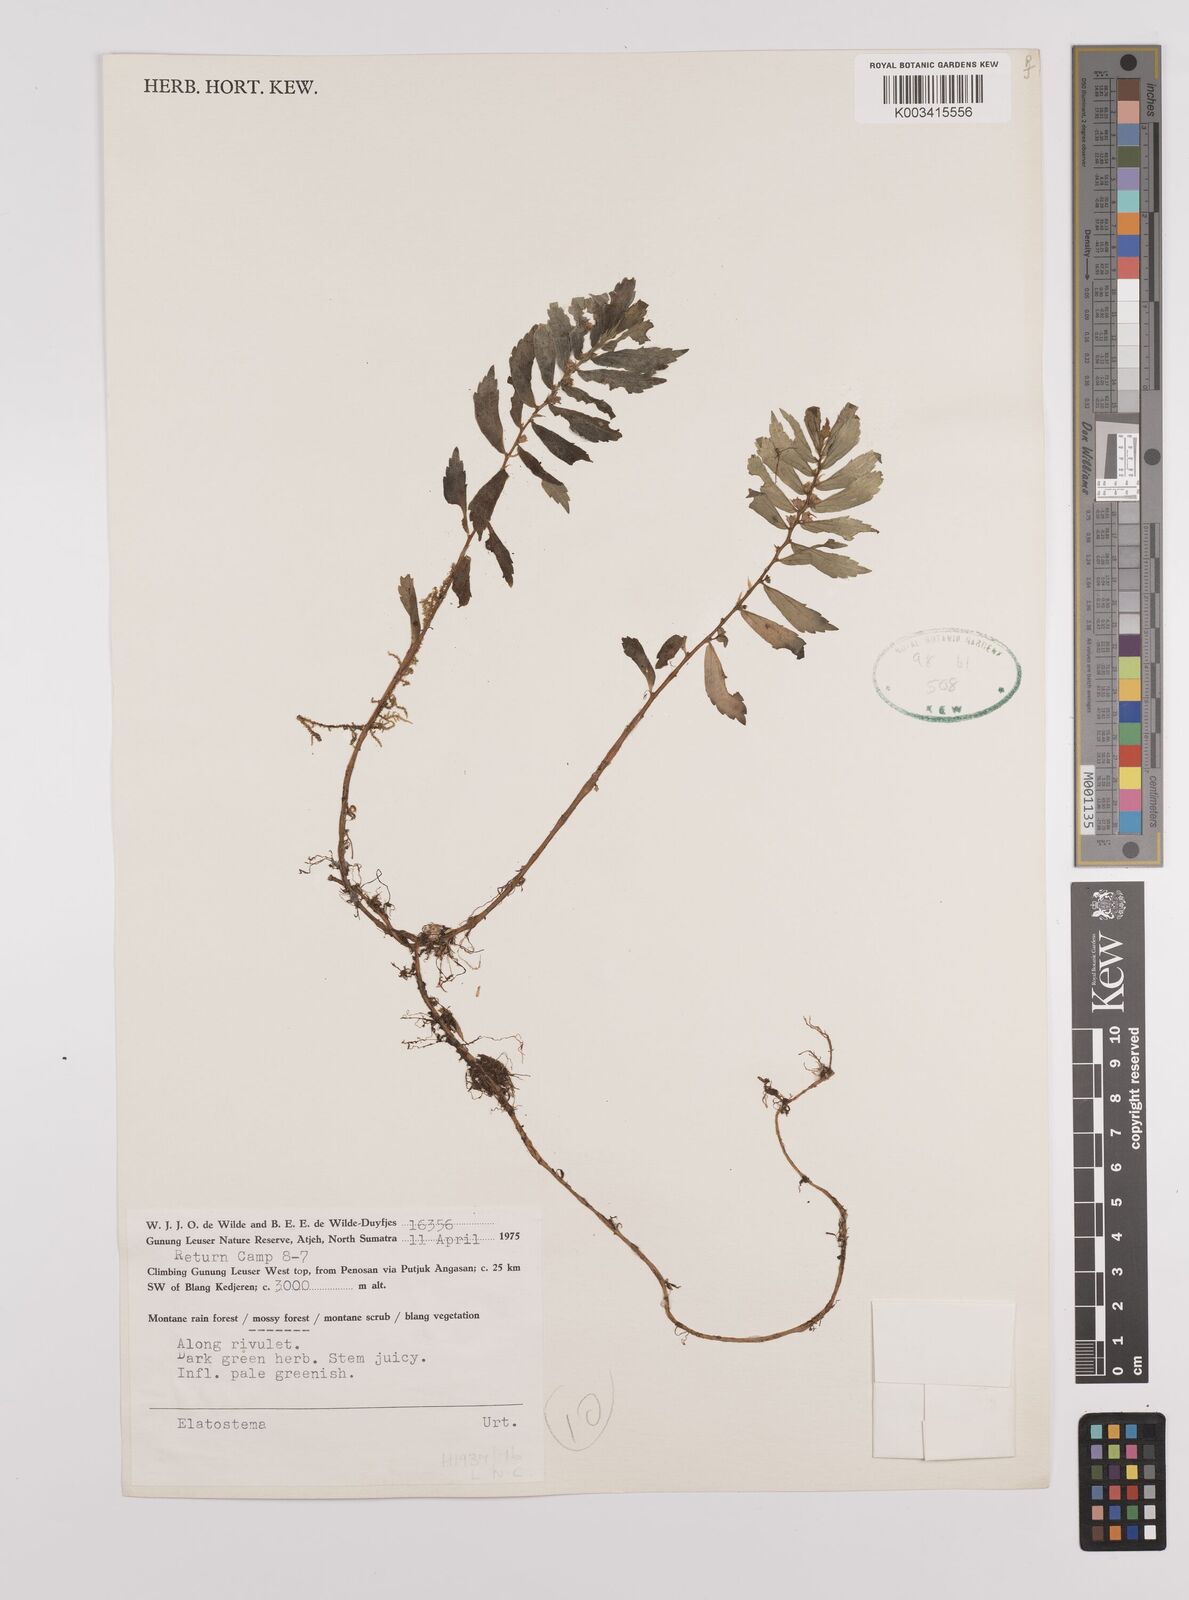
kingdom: Plantae
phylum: Tracheophyta
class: Magnoliopsida
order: Rosales
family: Urticaceae
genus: Elatostema
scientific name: Elatostema
